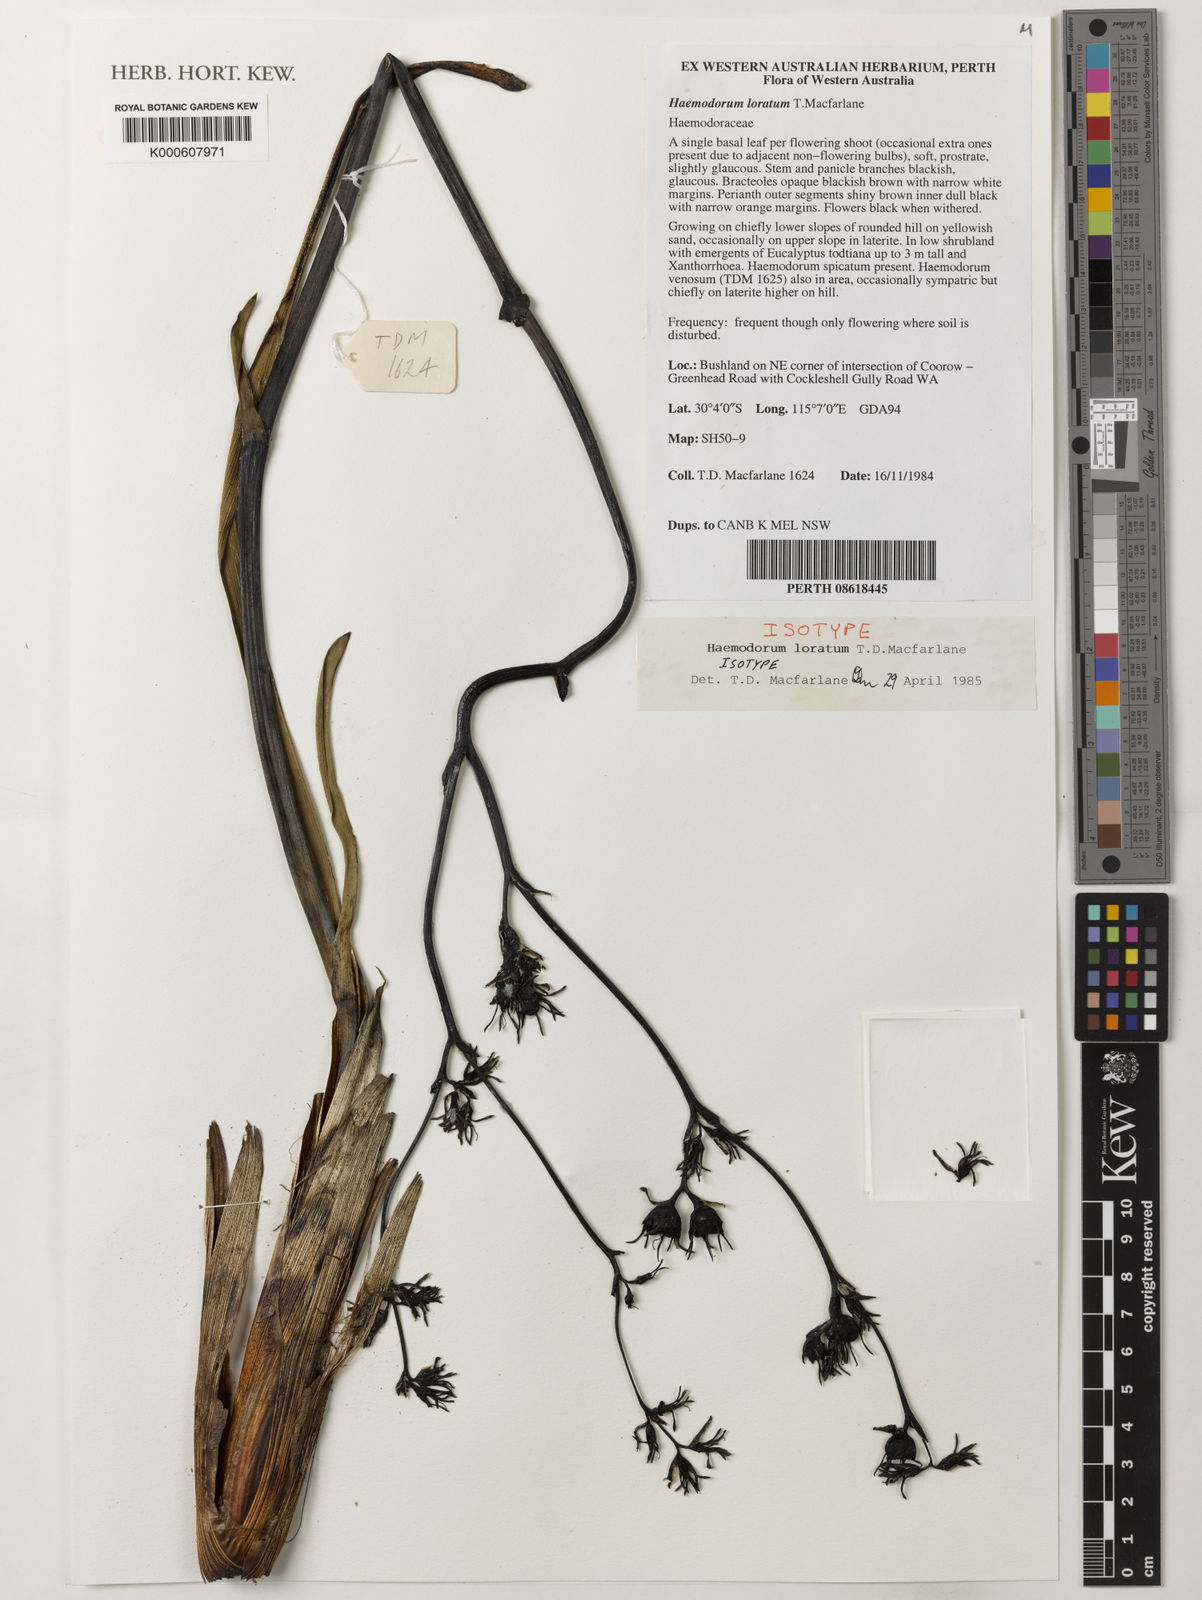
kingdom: Plantae
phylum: Tracheophyta
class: Liliopsida
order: Commelinales
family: Haemodoraceae
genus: Haemodorum
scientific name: Haemodorum loratum
